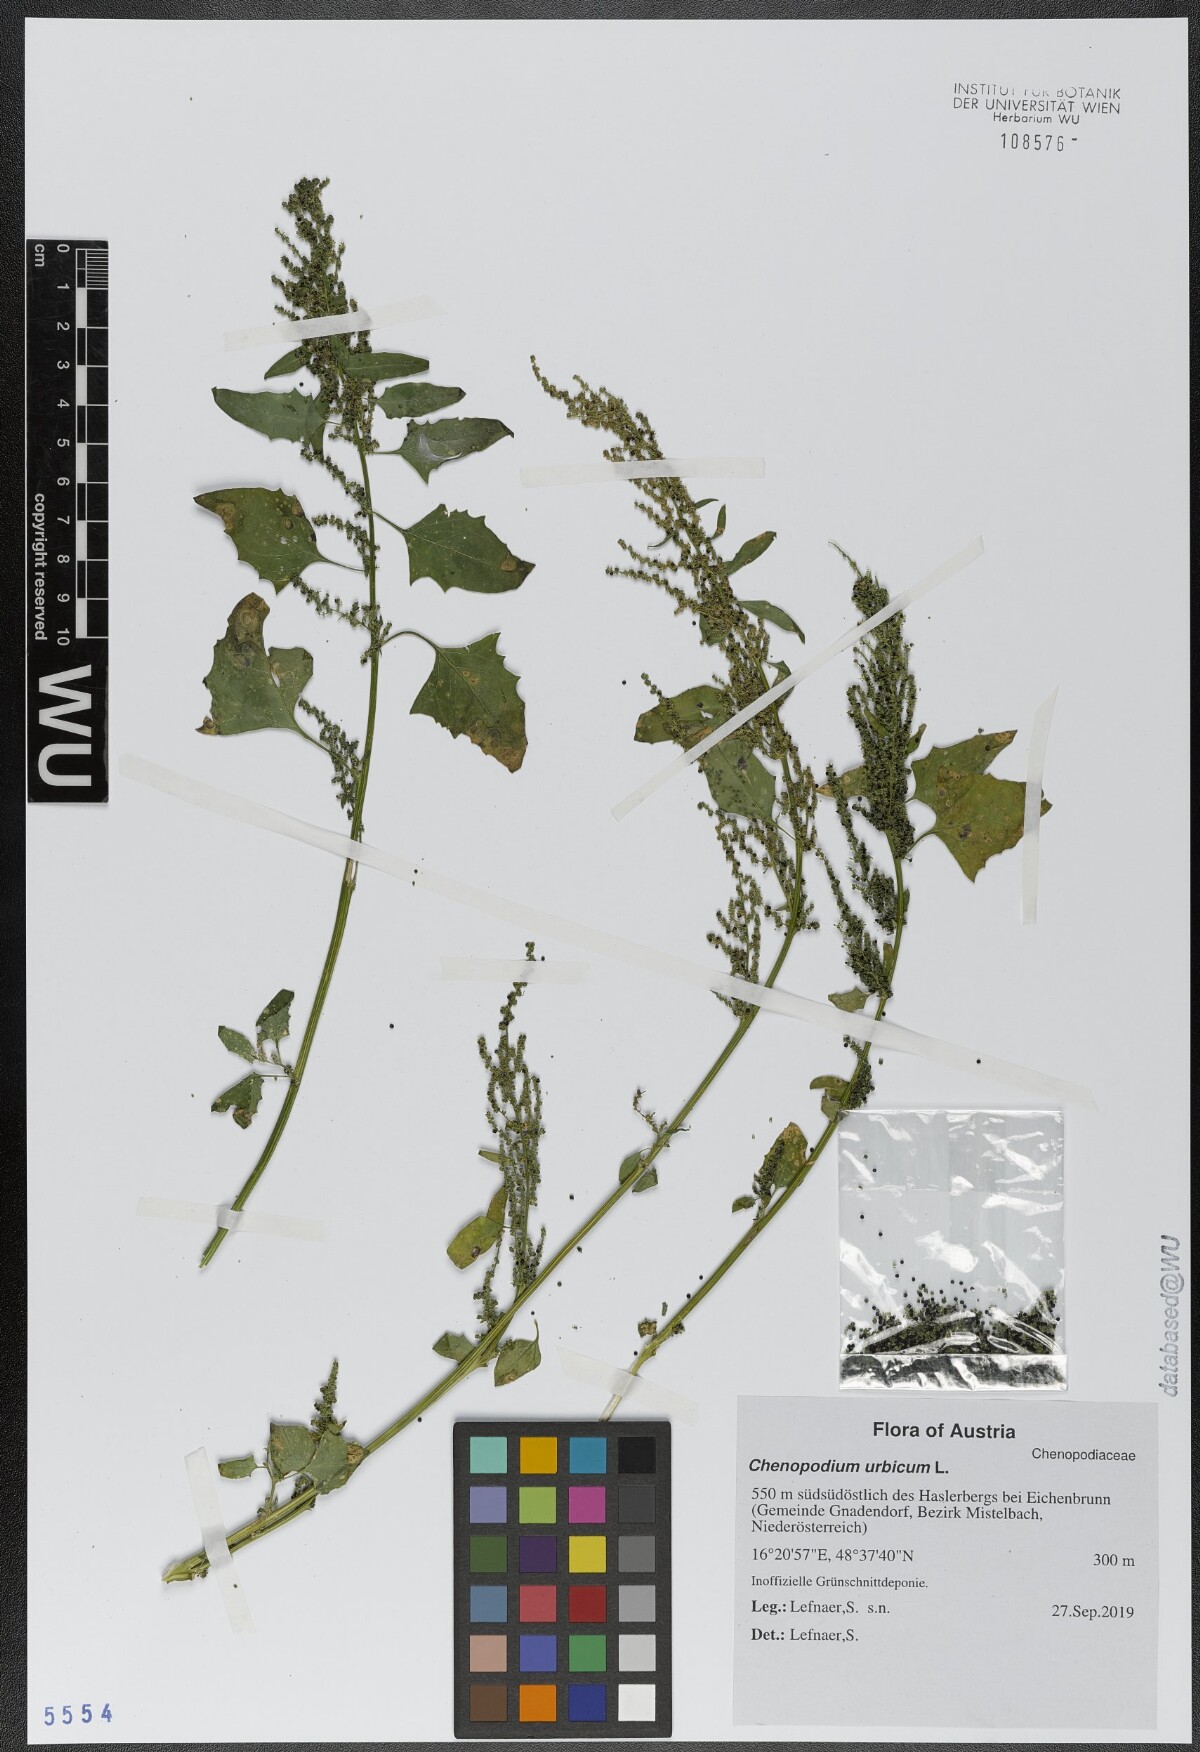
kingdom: Plantae
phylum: Tracheophyta
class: Magnoliopsida
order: Caryophyllales
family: Amaranthaceae
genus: Oxybasis
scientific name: Oxybasis urbica
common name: City goosefoot
